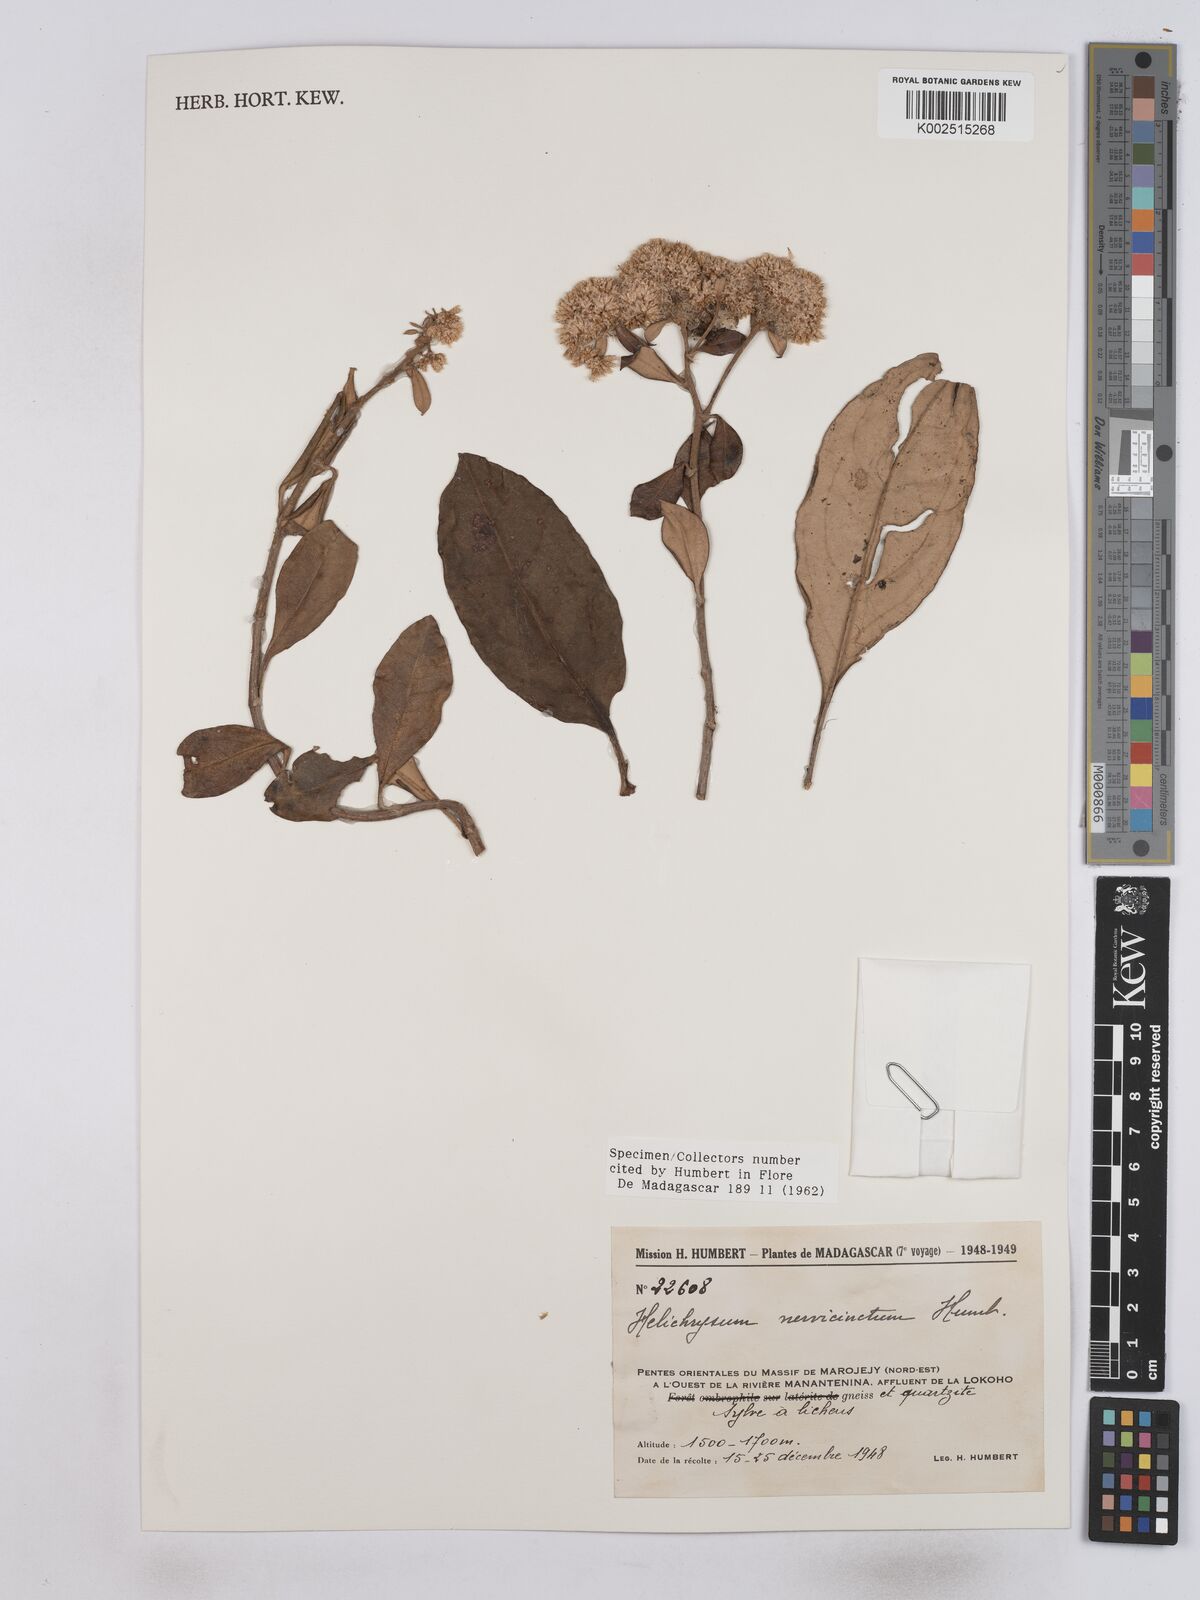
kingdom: Plantae
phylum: Tracheophyta
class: Magnoliopsida
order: Asterales
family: Asteraceae
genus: Helichrysum
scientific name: Helichrysum nervicinctum
